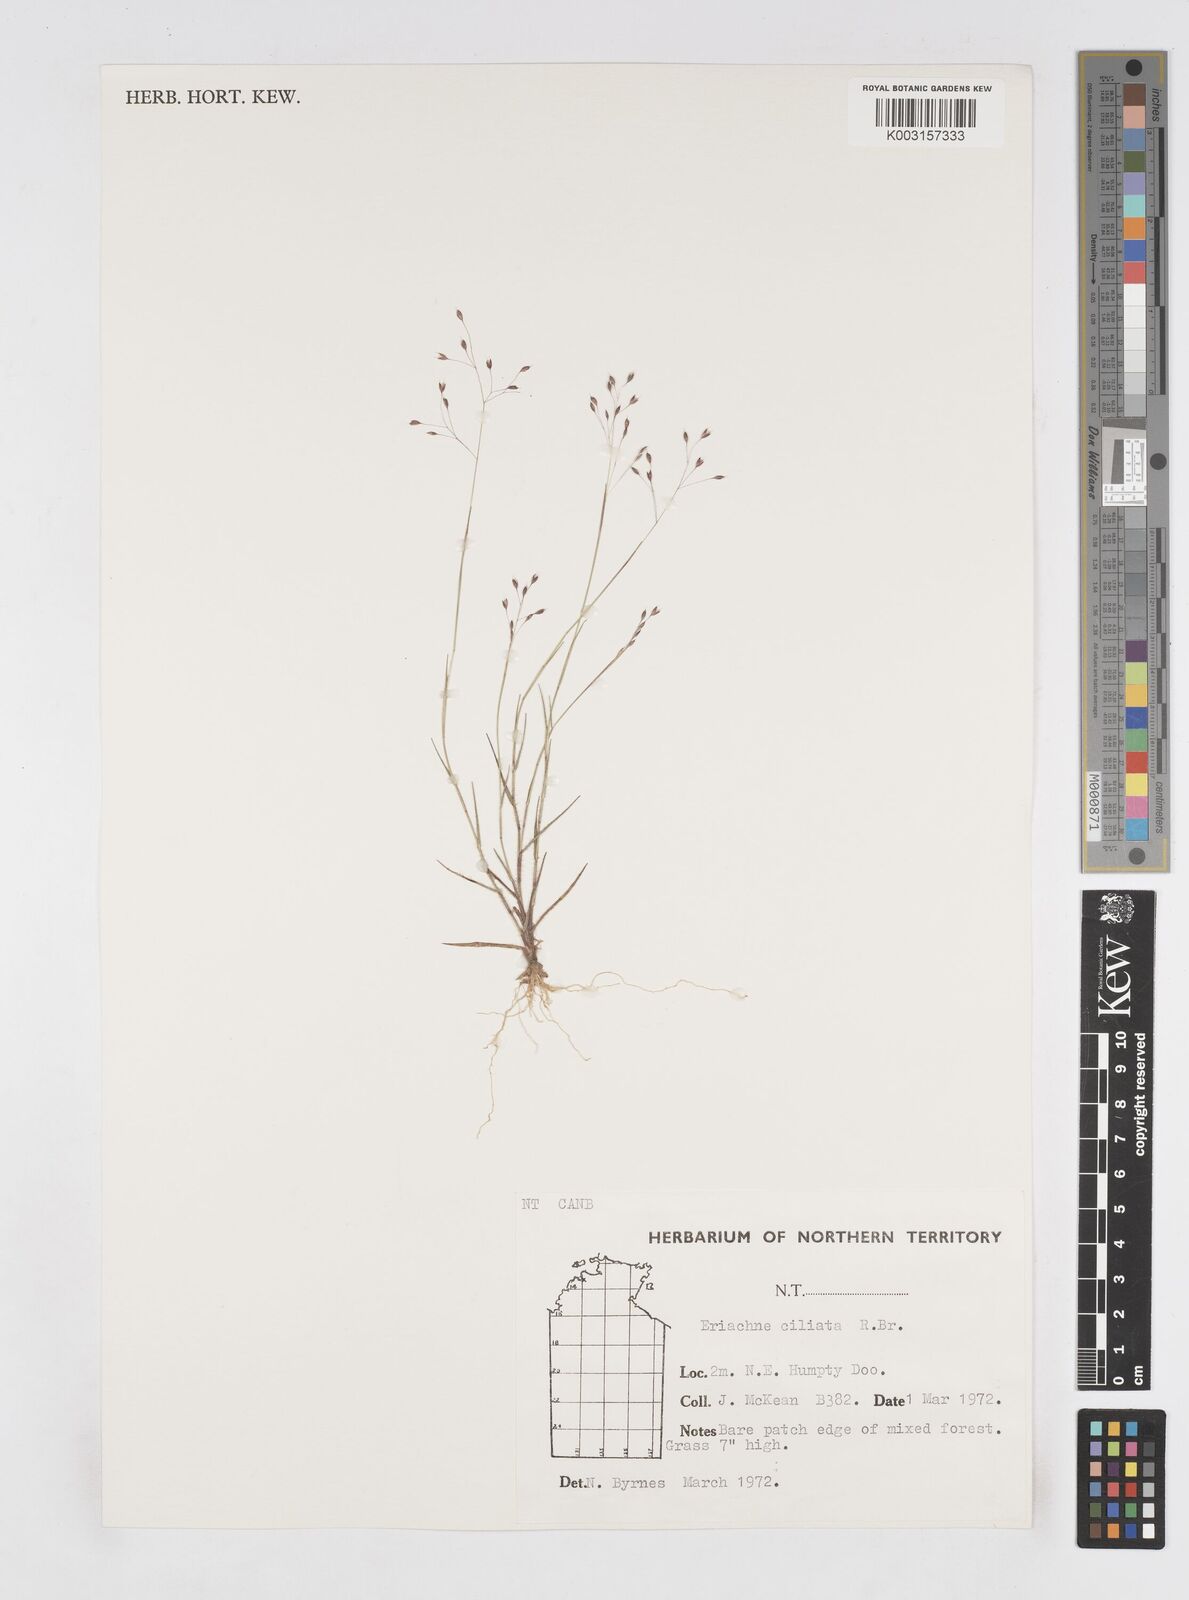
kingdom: Plantae
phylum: Tracheophyta
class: Liliopsida
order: Poales
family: Poaceae
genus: Eriachne
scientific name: Eriachne ciliata
